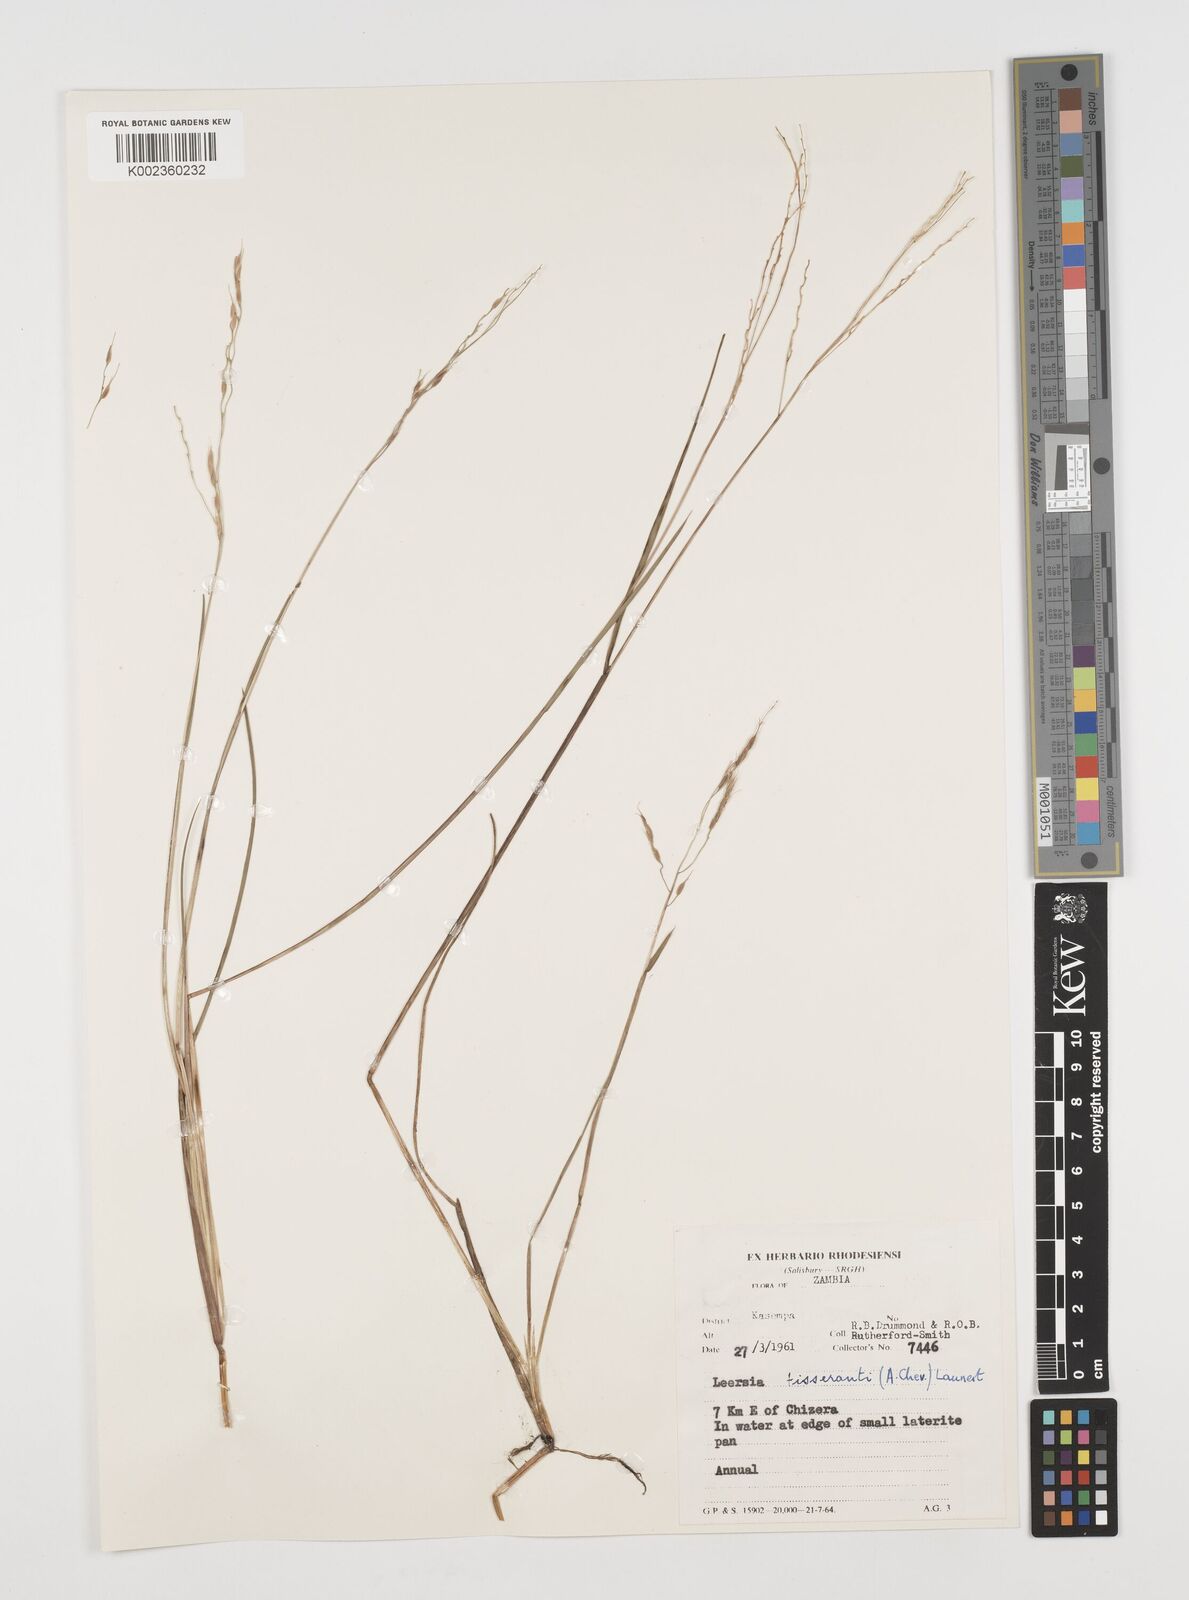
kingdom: Plantae
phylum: Tracheophyta
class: Liliopsida
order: Poales
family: Poaceae
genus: Leersia
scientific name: Leersia tisserantii
